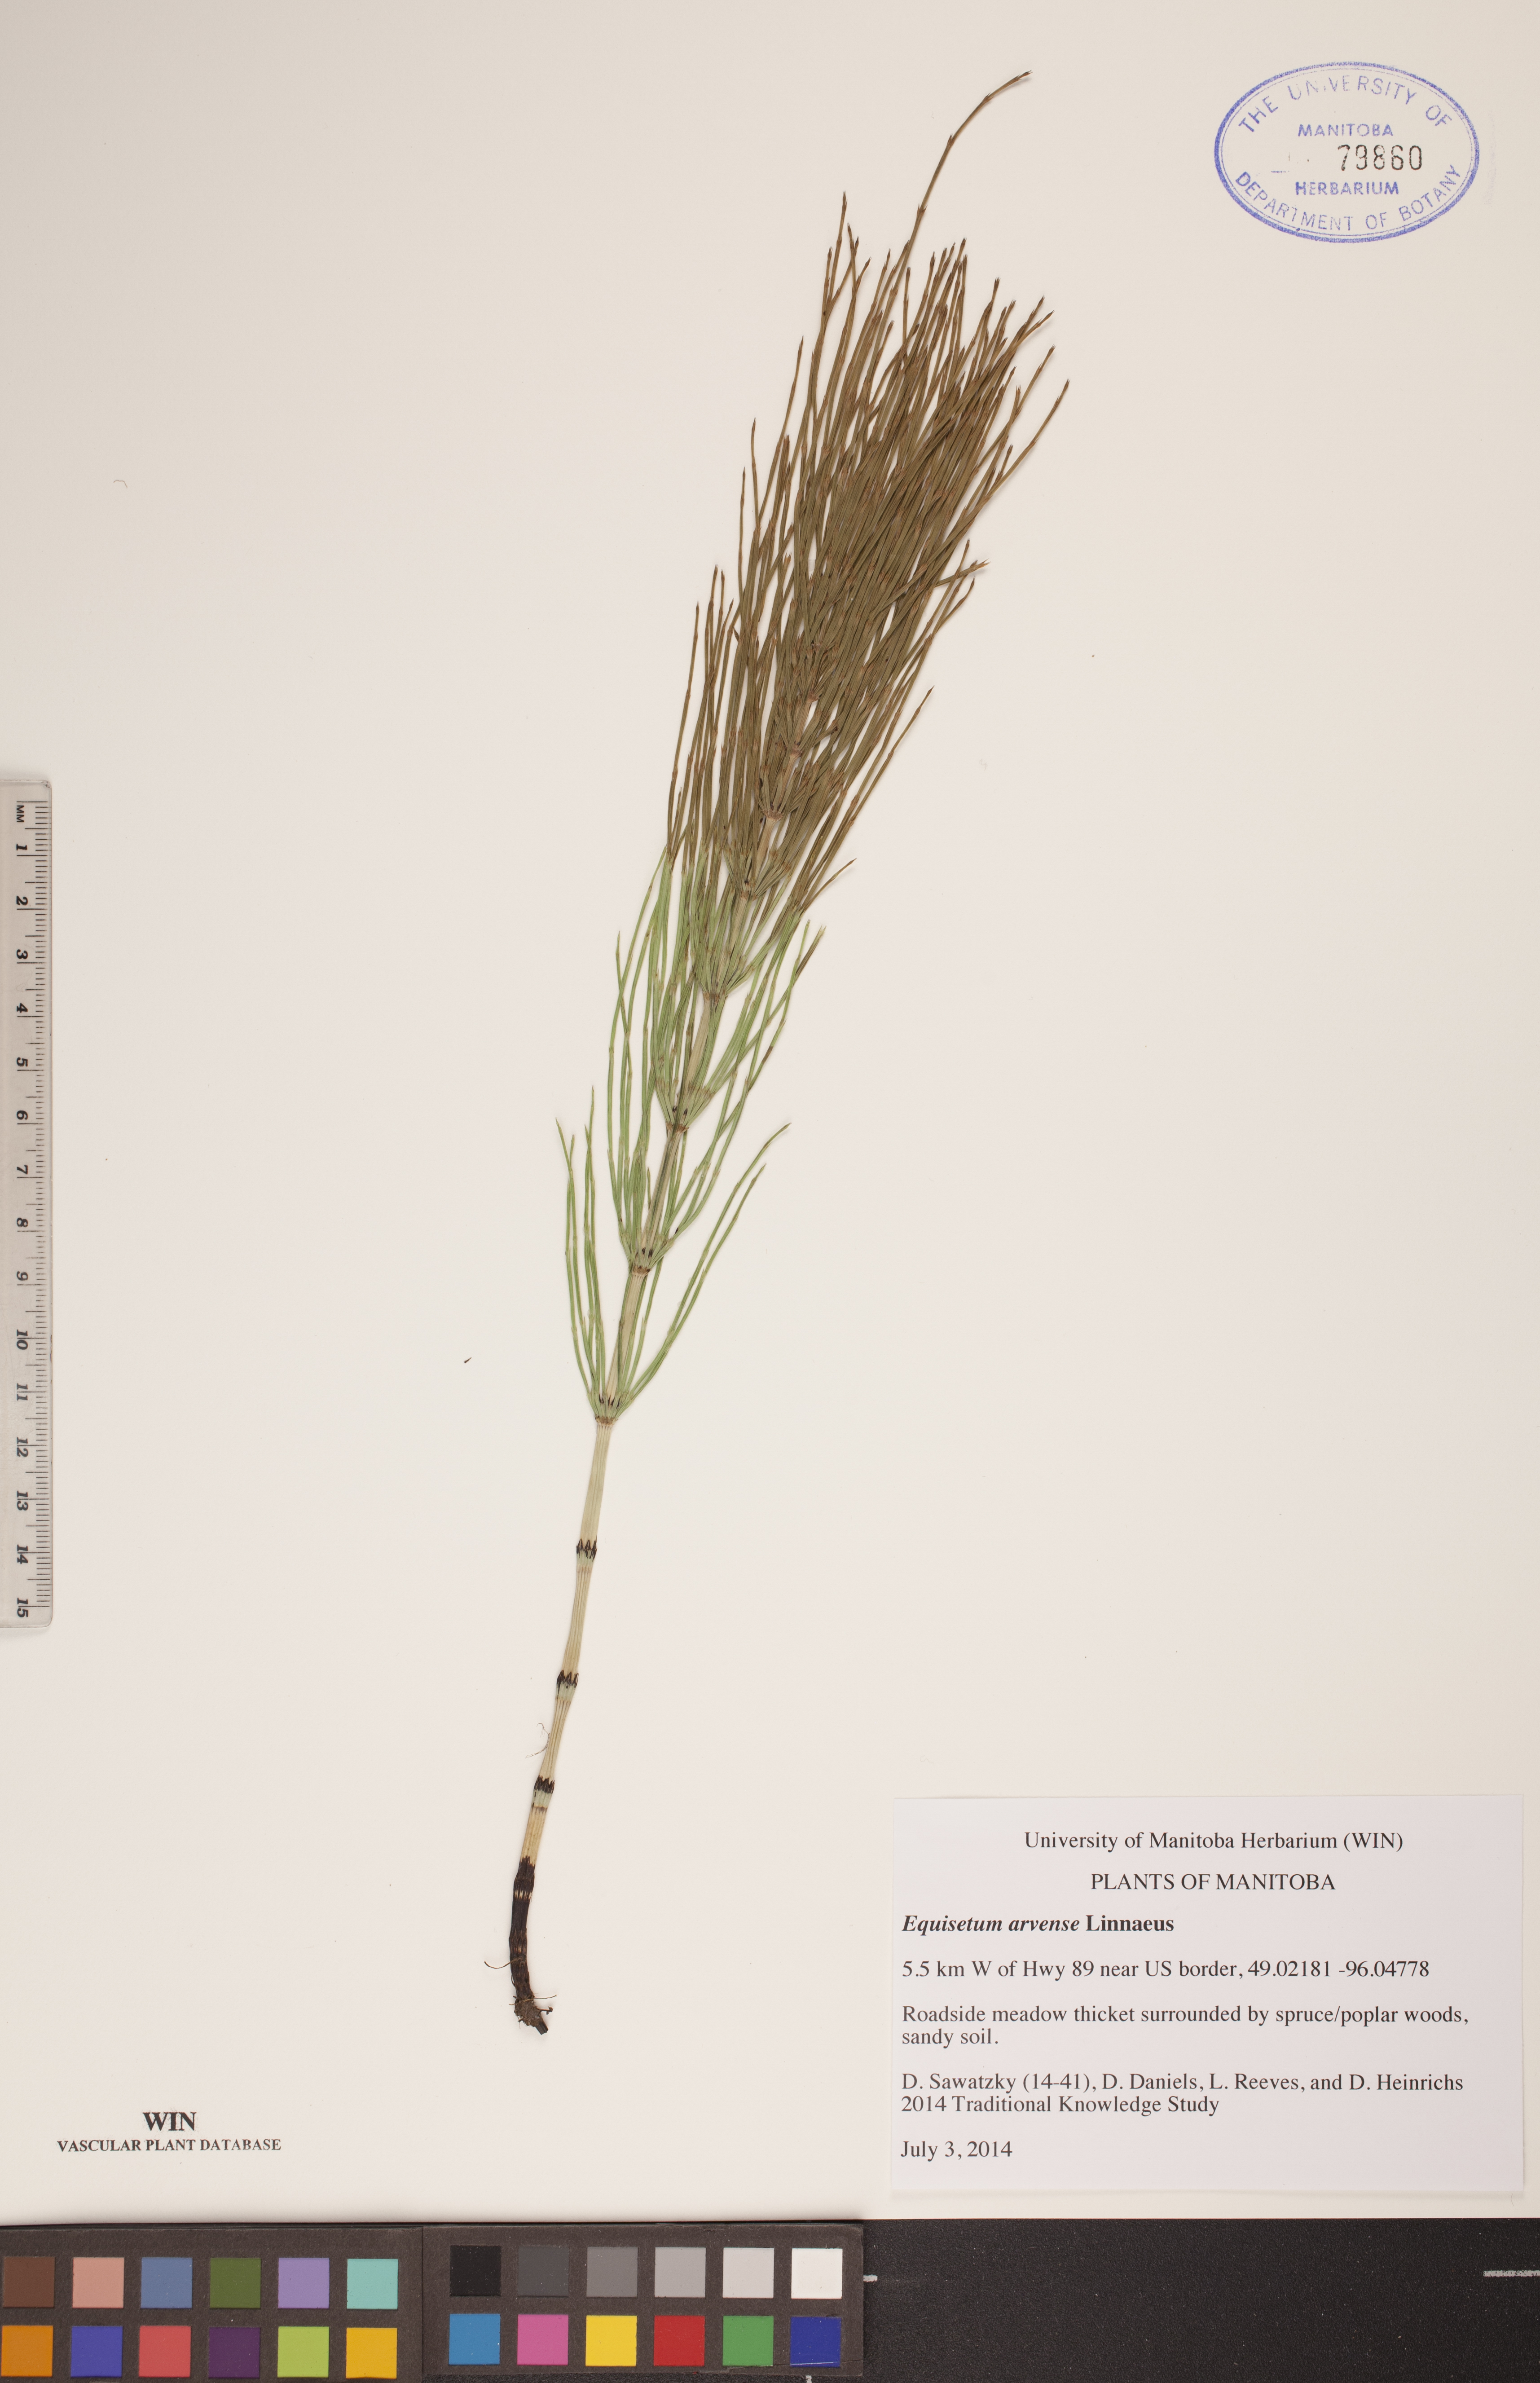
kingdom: Plantae
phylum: Tracheophyta
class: Polypodiopsida
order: Equisetales
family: Equisetaceae
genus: Equisetum
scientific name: Equisetum arvense
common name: Field horsetail
